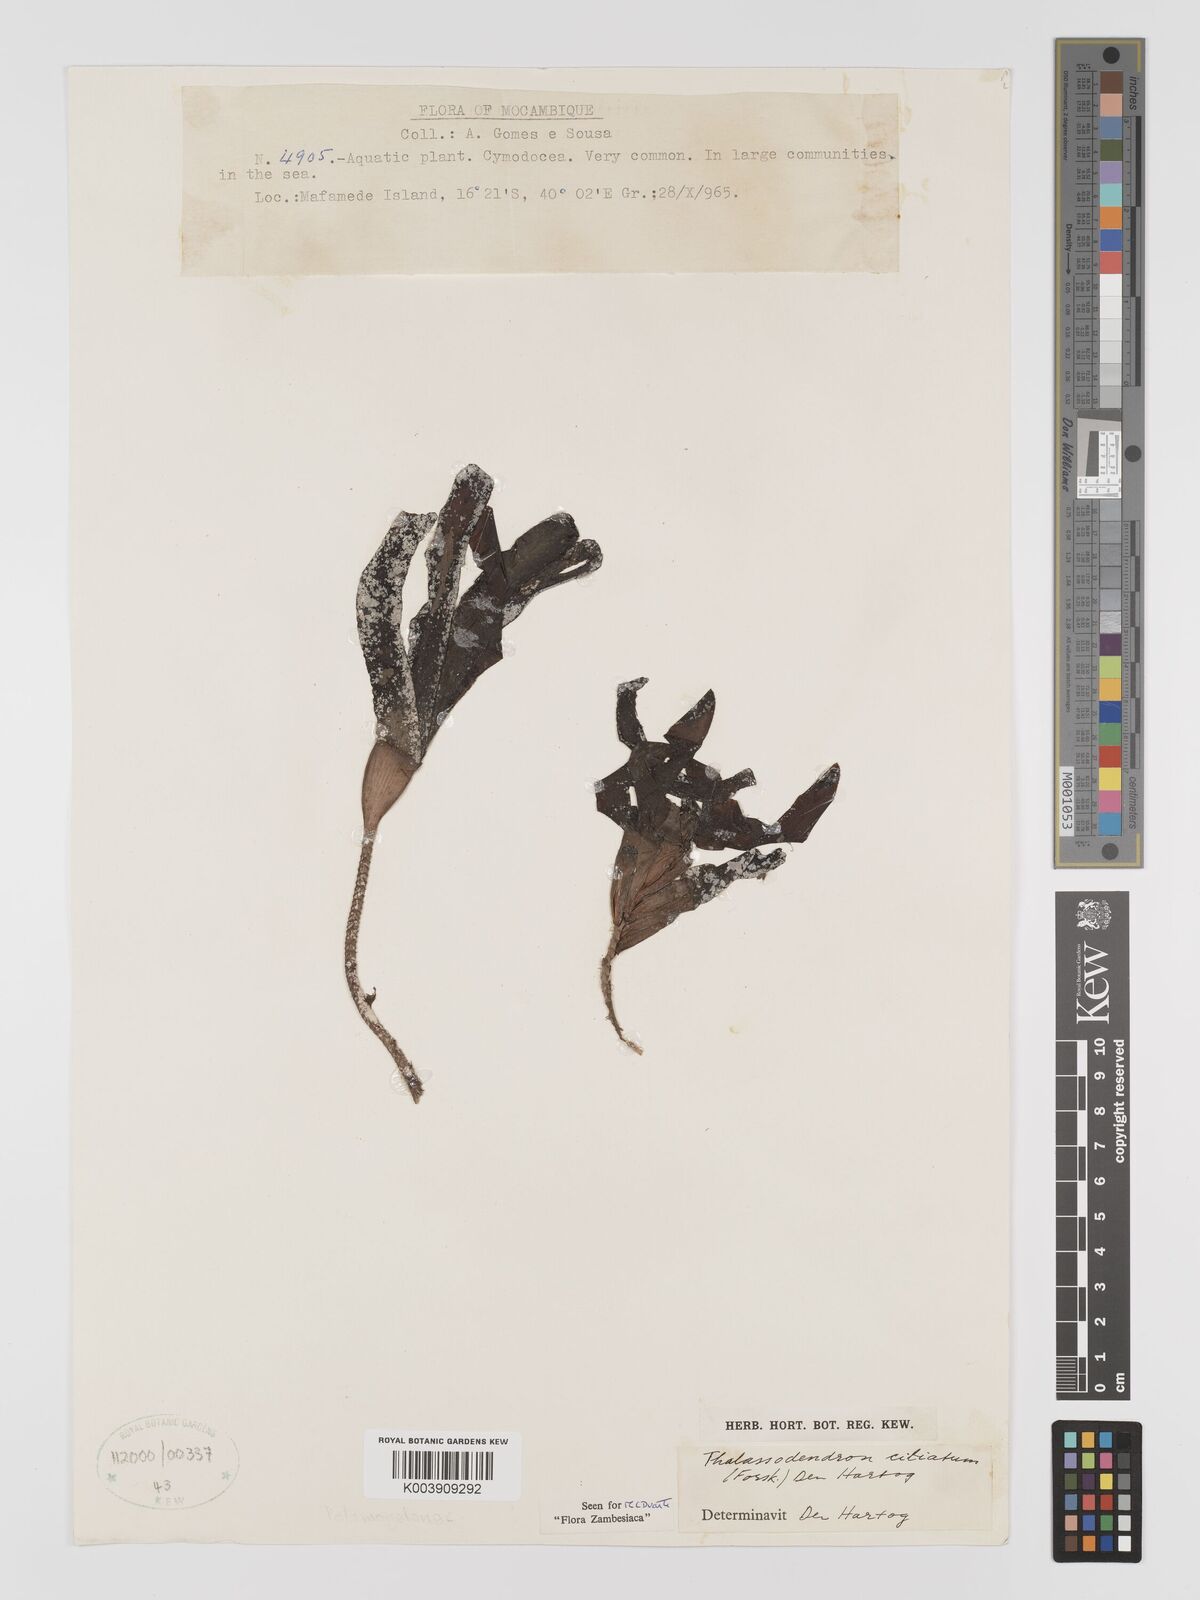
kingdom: Plantae
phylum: Tracheophyta
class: Liliopsida
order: Alismatales
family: Cymodoceaceae
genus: Thalassodendron
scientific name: Thalassodendron ciliatum
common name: Species code: tc
